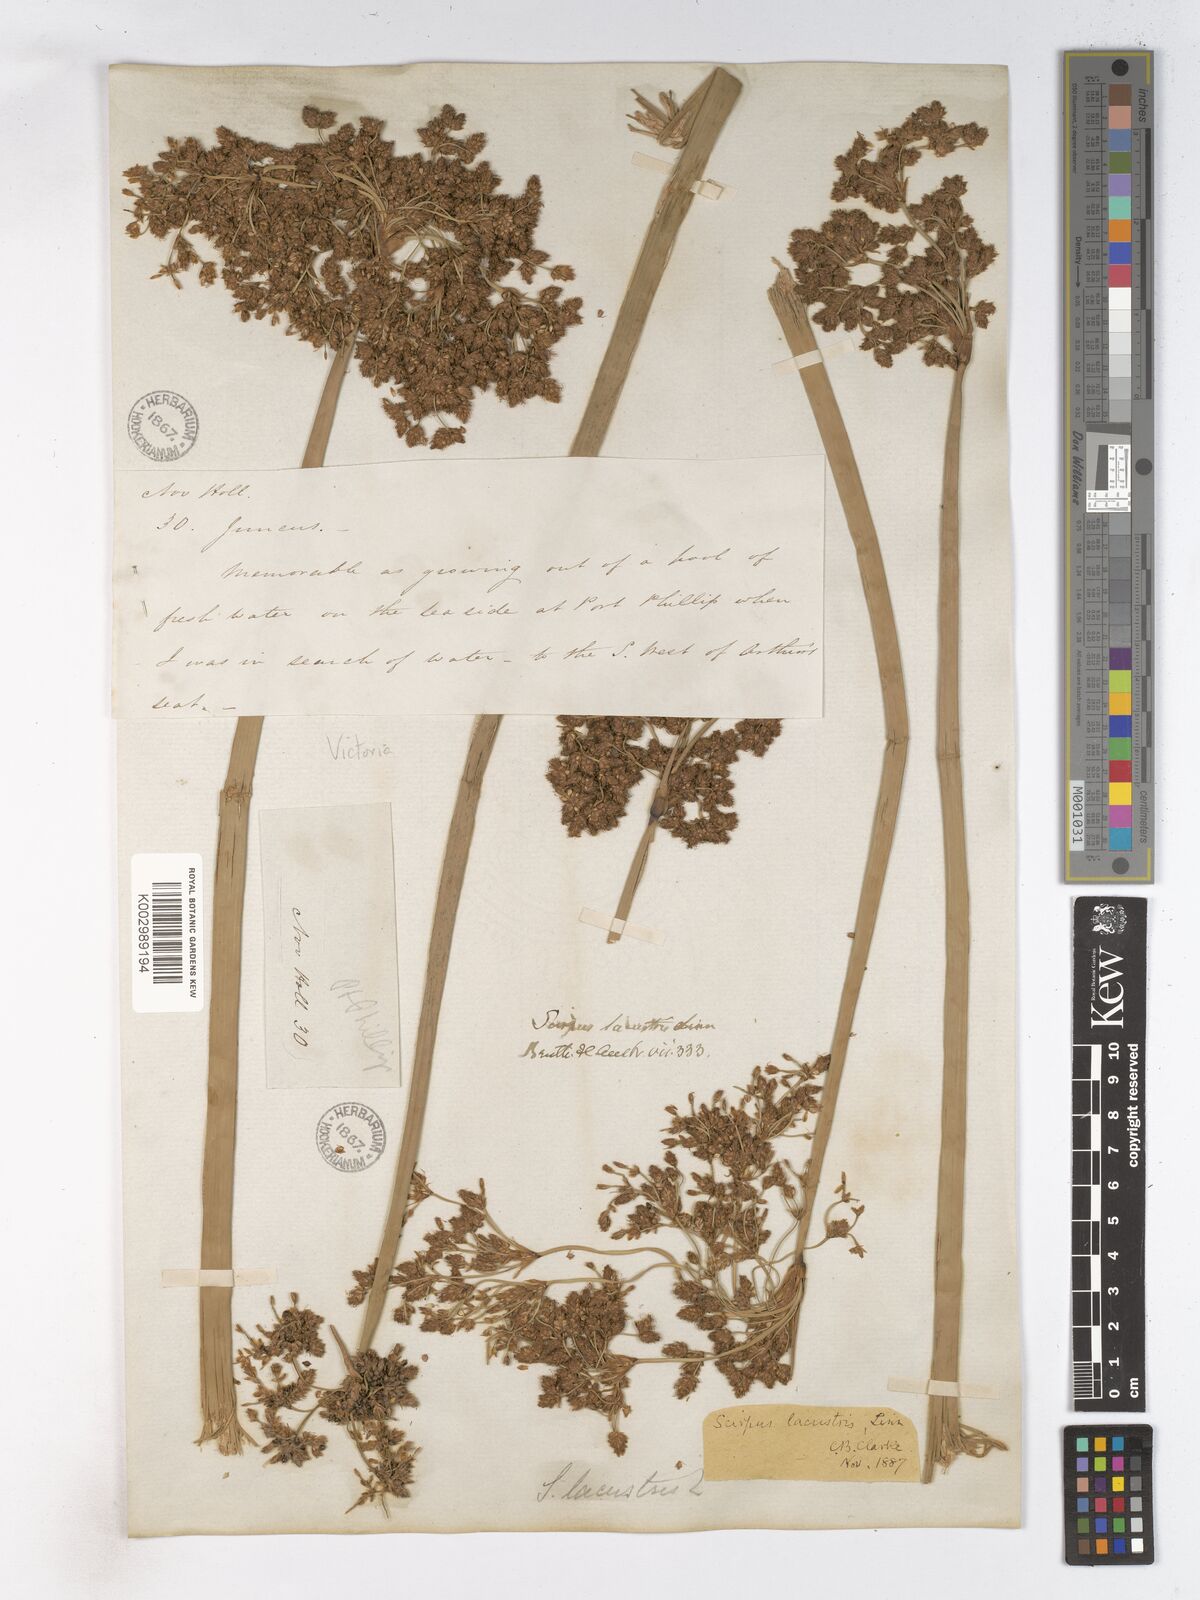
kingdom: Plantae
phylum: Tracheophyta
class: Liliopsida
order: Poales
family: Cyperaceae
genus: Schoenoplectus
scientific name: Schoenoplectus lacustris
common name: Common club-rush
